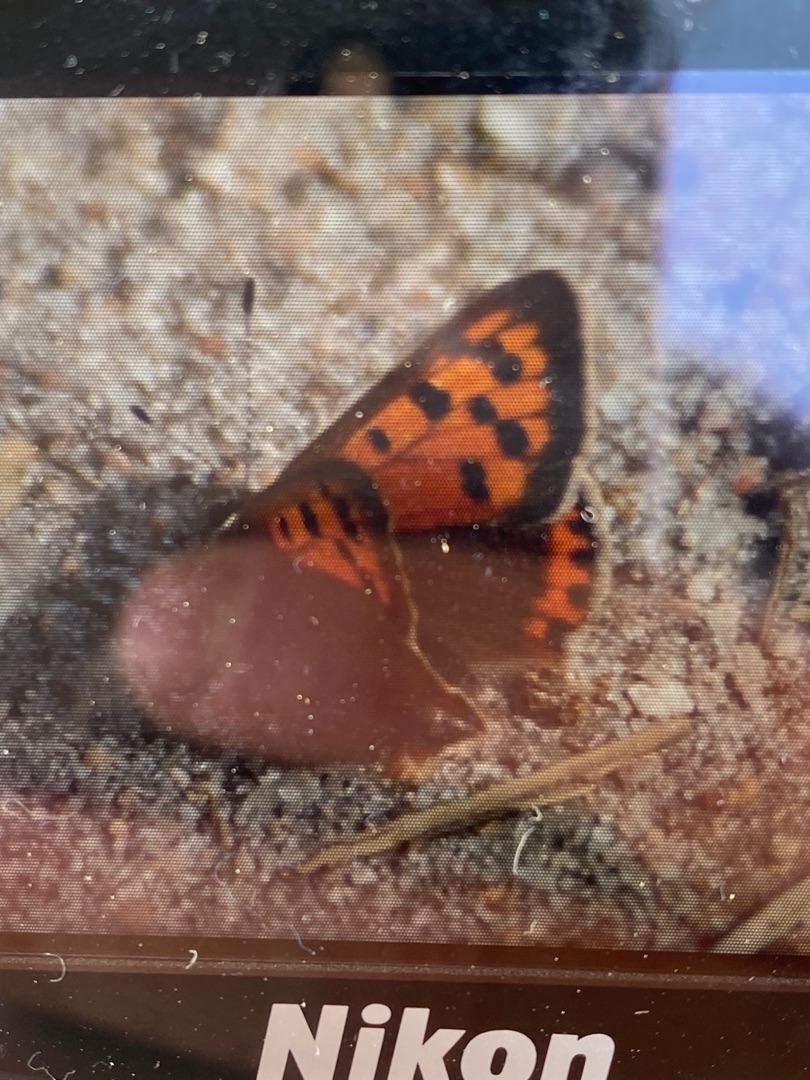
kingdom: Animalia
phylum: Arthropoda
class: Insecta
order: Lepidoptera
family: Lycaenidae
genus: Lycaena
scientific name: Lycaena phlaeas
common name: Lille ildfugl
